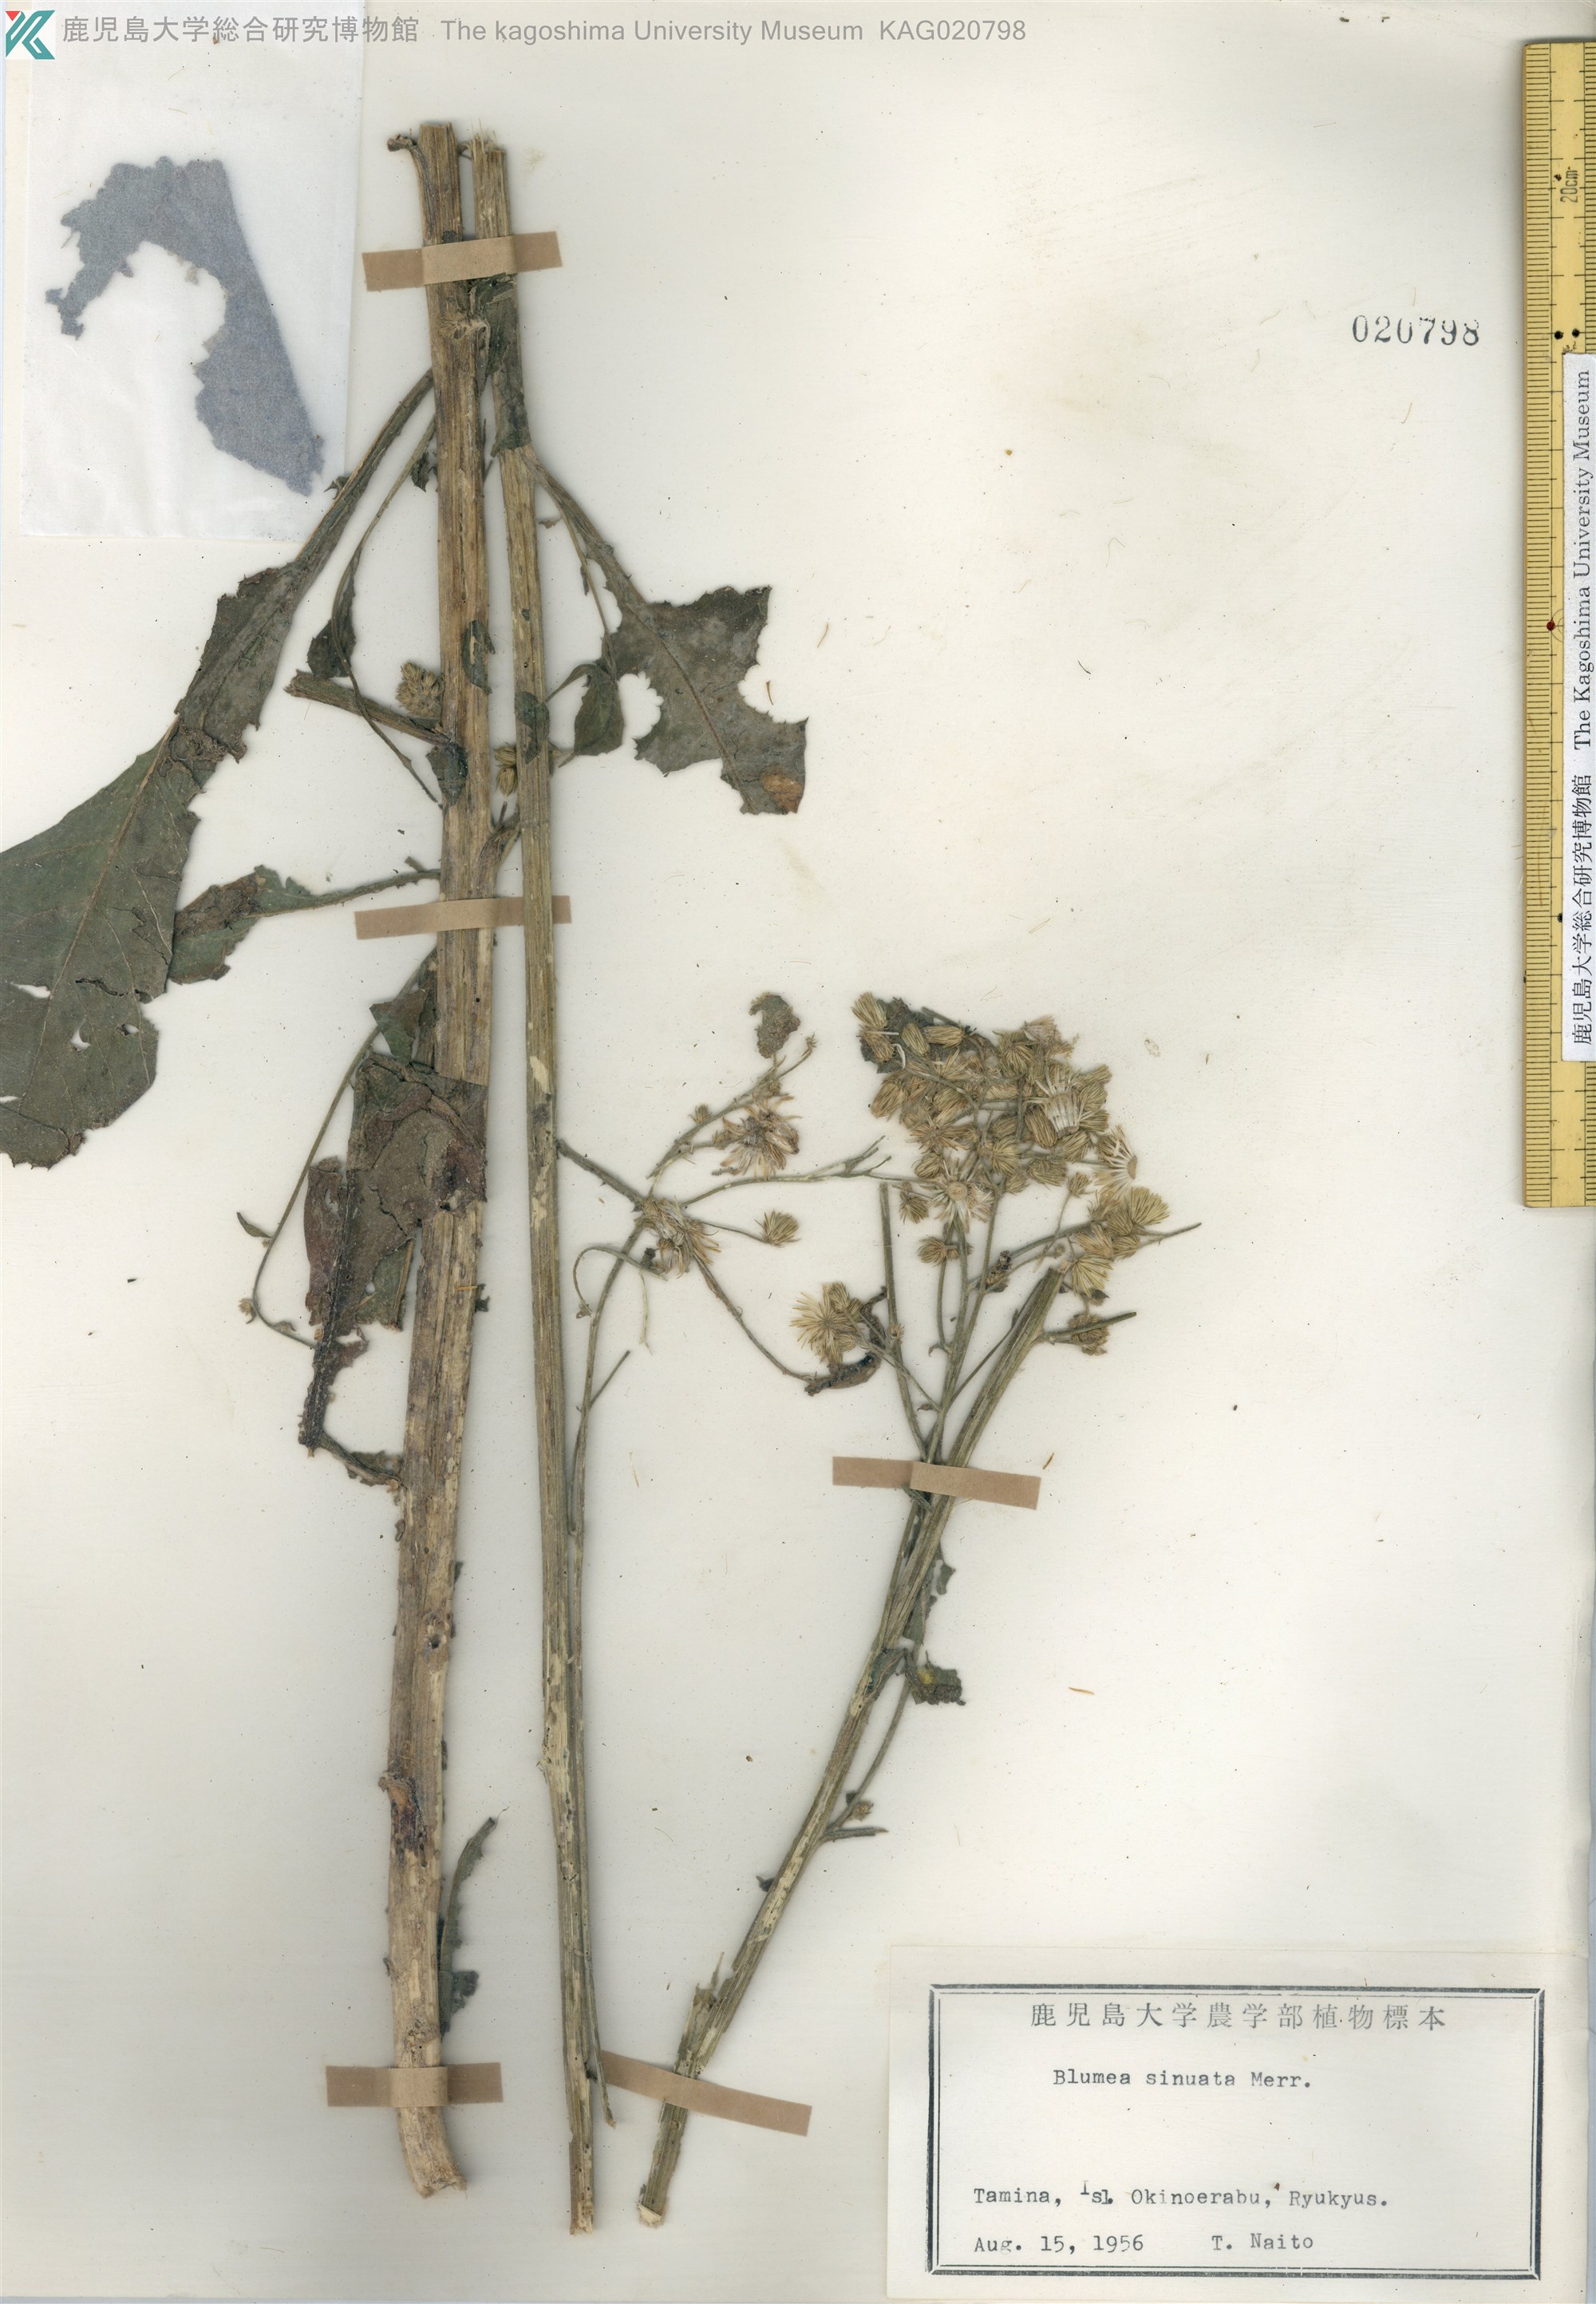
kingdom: Plantae
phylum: Tracheophyta
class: Magnoliopsida
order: Asterales
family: Asteraceae
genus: Blumea
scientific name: Blumea lacera
